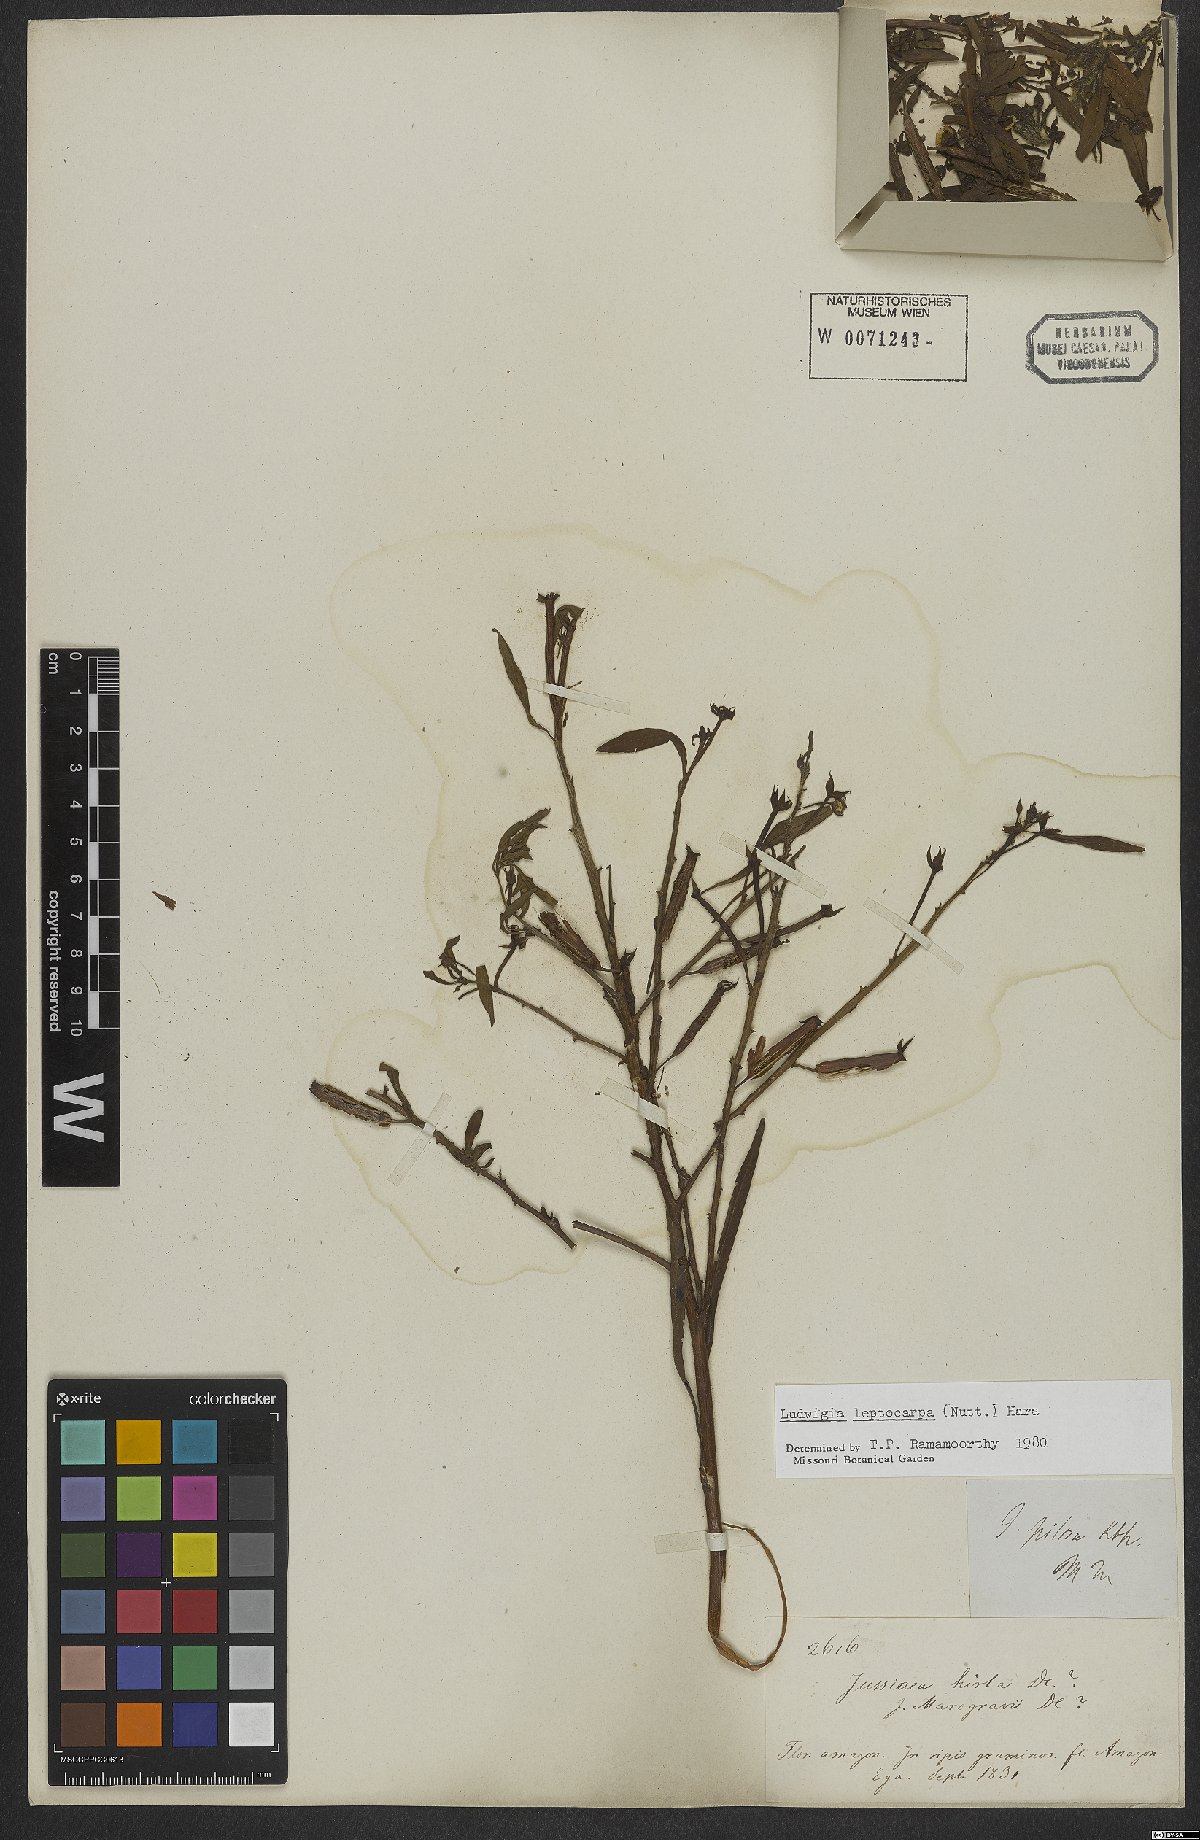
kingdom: Plantae
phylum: Tracheophyta
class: Magnoliopsida
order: Myrtales
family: Onagraceae
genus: Ludwigia
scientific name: Ludwigia leptocarpa
